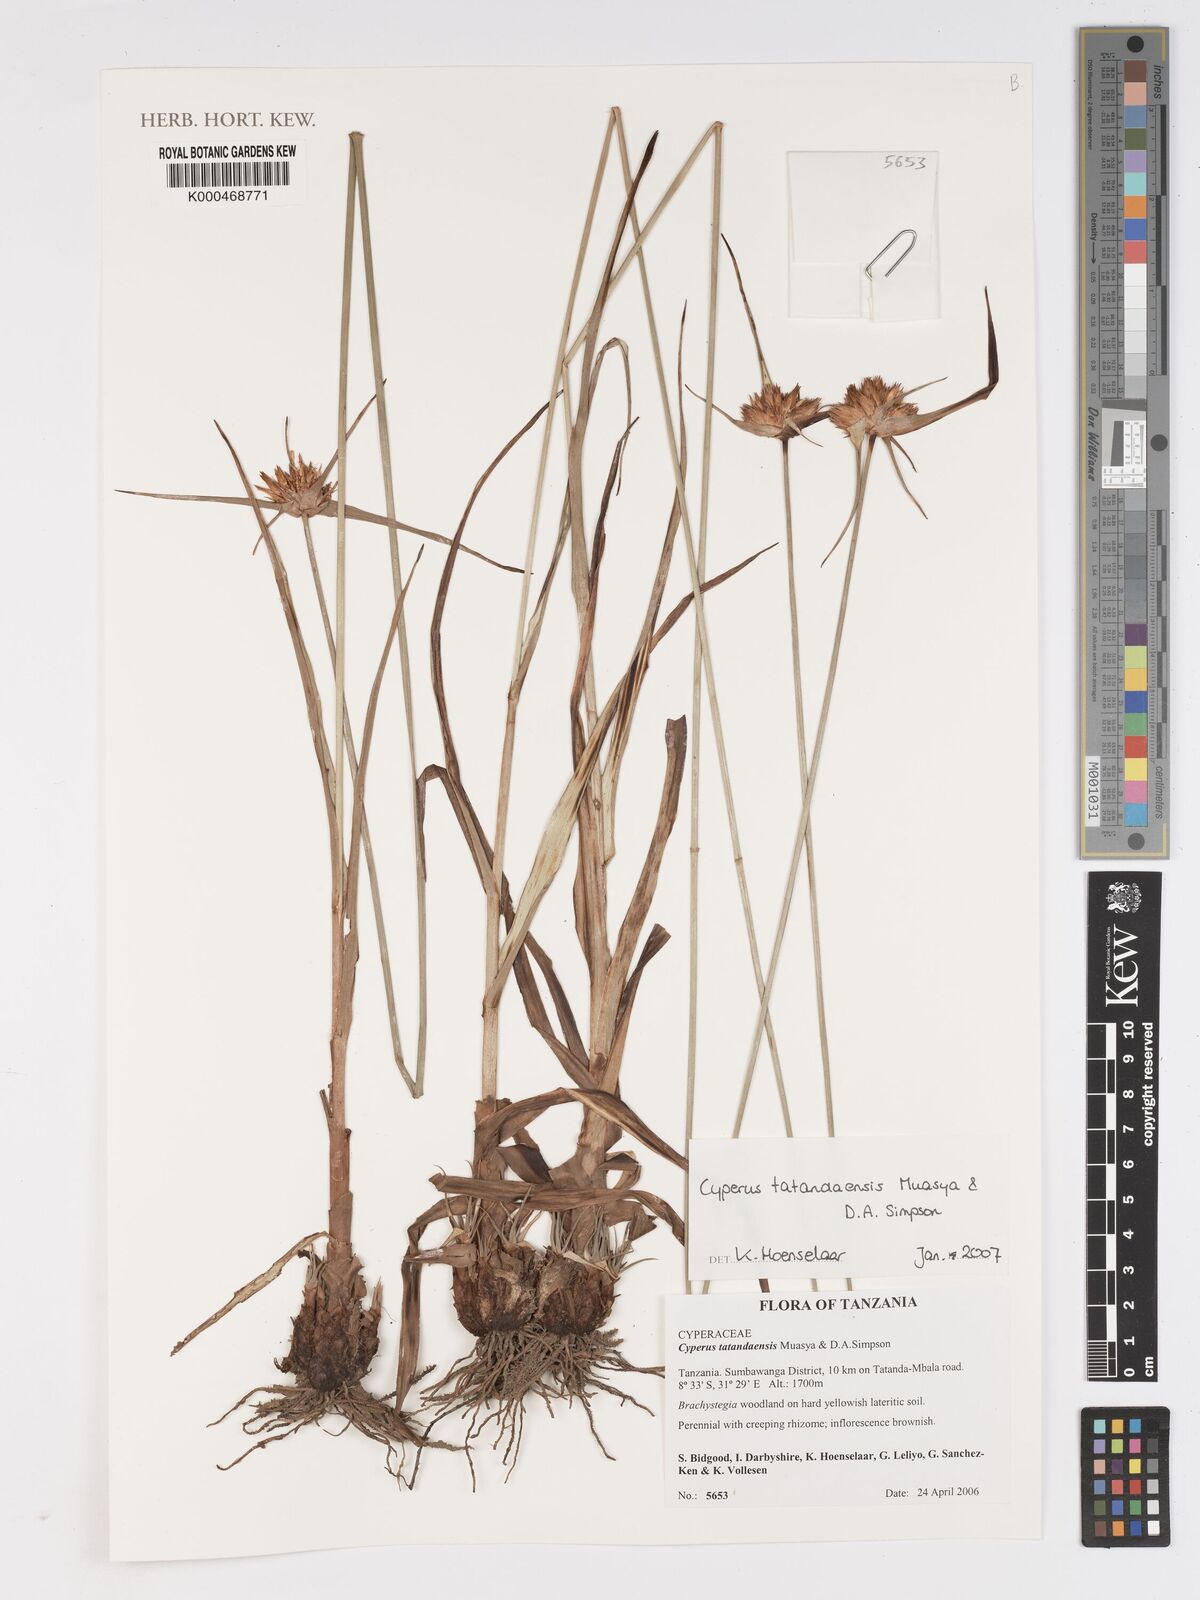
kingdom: Plantae
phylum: Tracheophyta
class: Liliopsida
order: Poales
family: Cyperaceae
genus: Cyperus
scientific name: Cyperus tatandaensis
